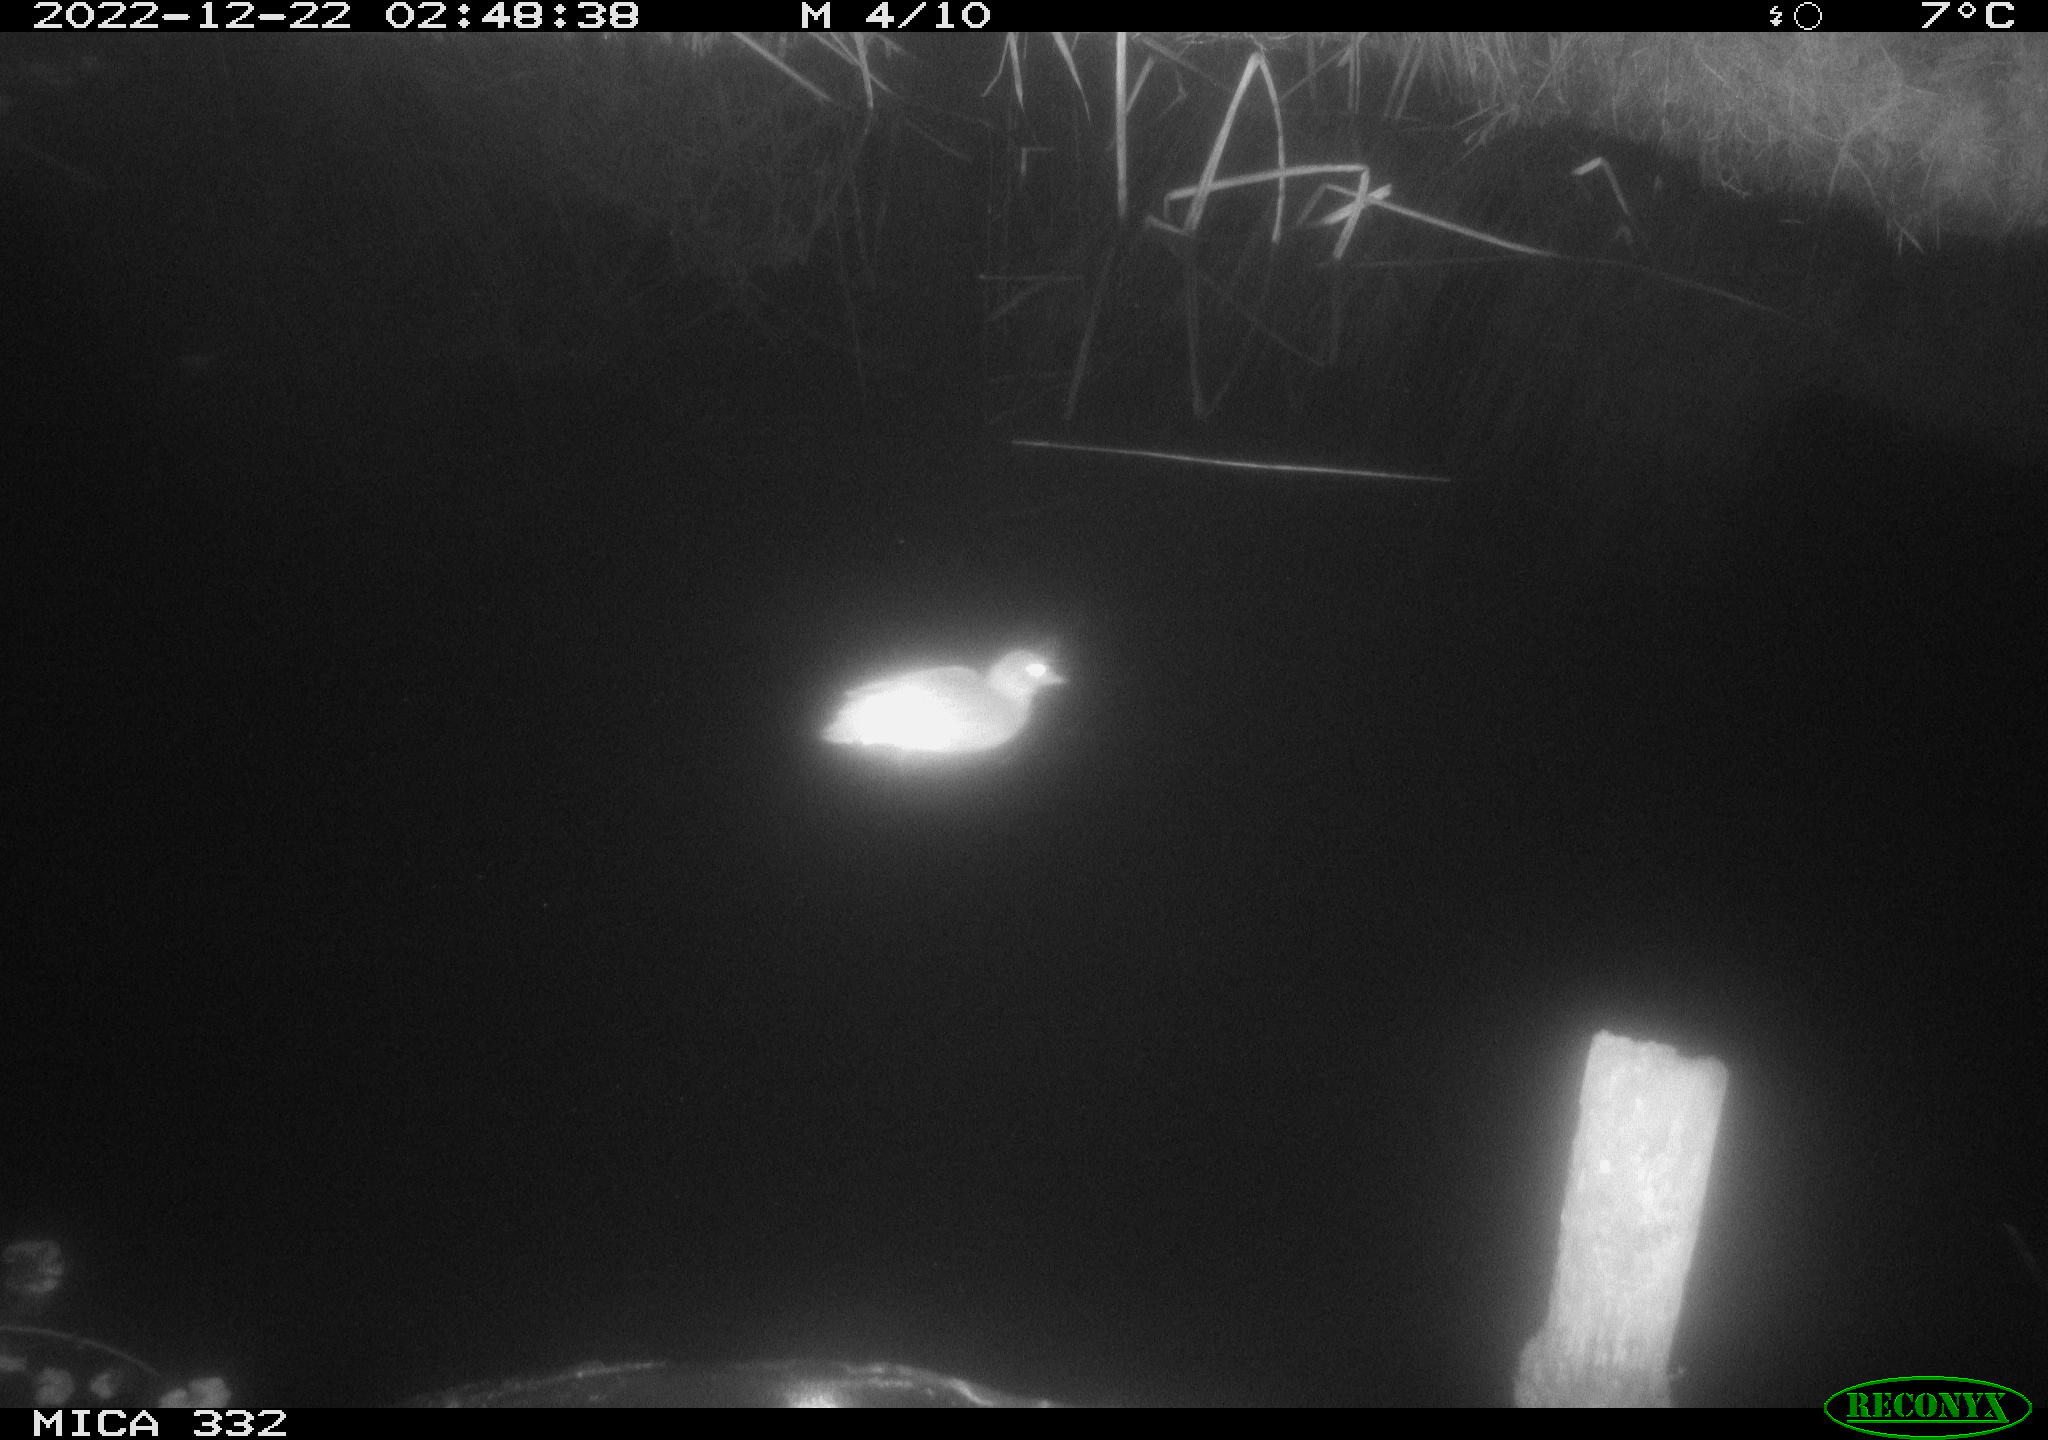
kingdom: Animalia
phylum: Chordata
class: Aves
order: Anseriformes
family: Anatidae
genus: Anas
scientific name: Anas
